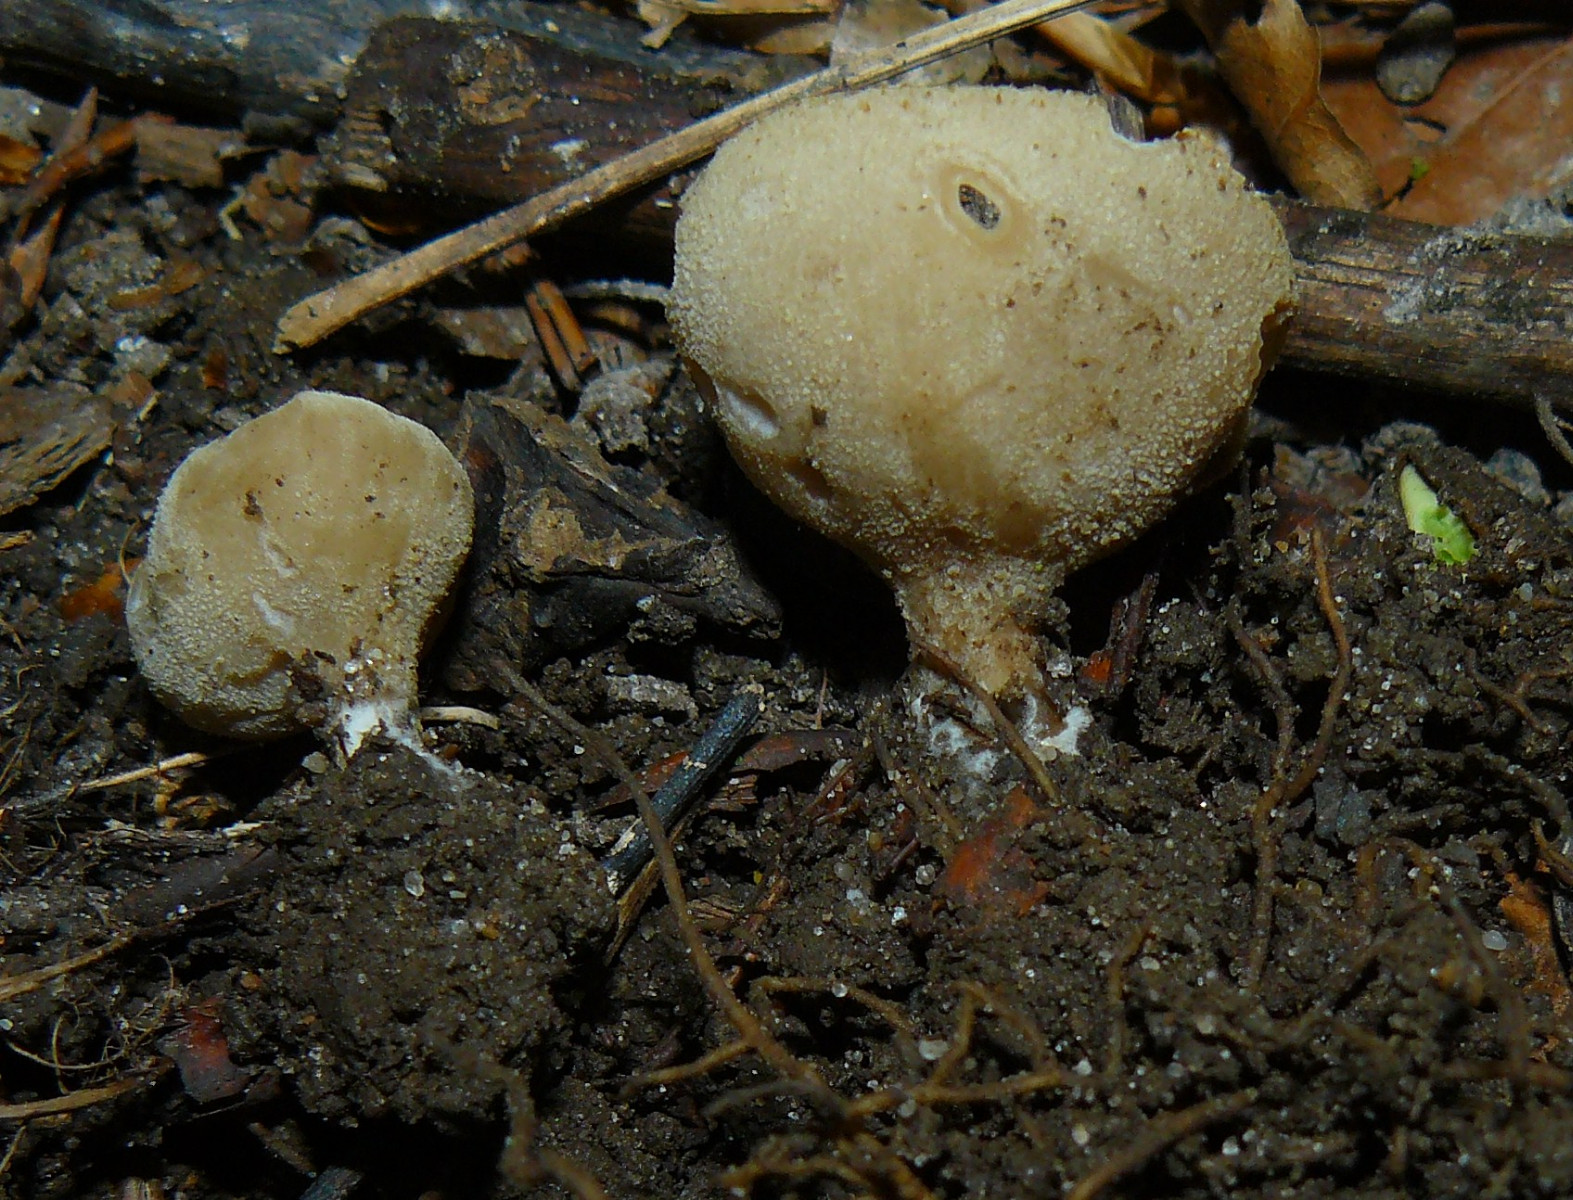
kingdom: Fungi
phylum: Ascomycota
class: Pezizomycetes
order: Pezizales
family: Pyronemataceae
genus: Tarzetta
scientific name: Tarzetta cupularis
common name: gulbrun pokalbæger
